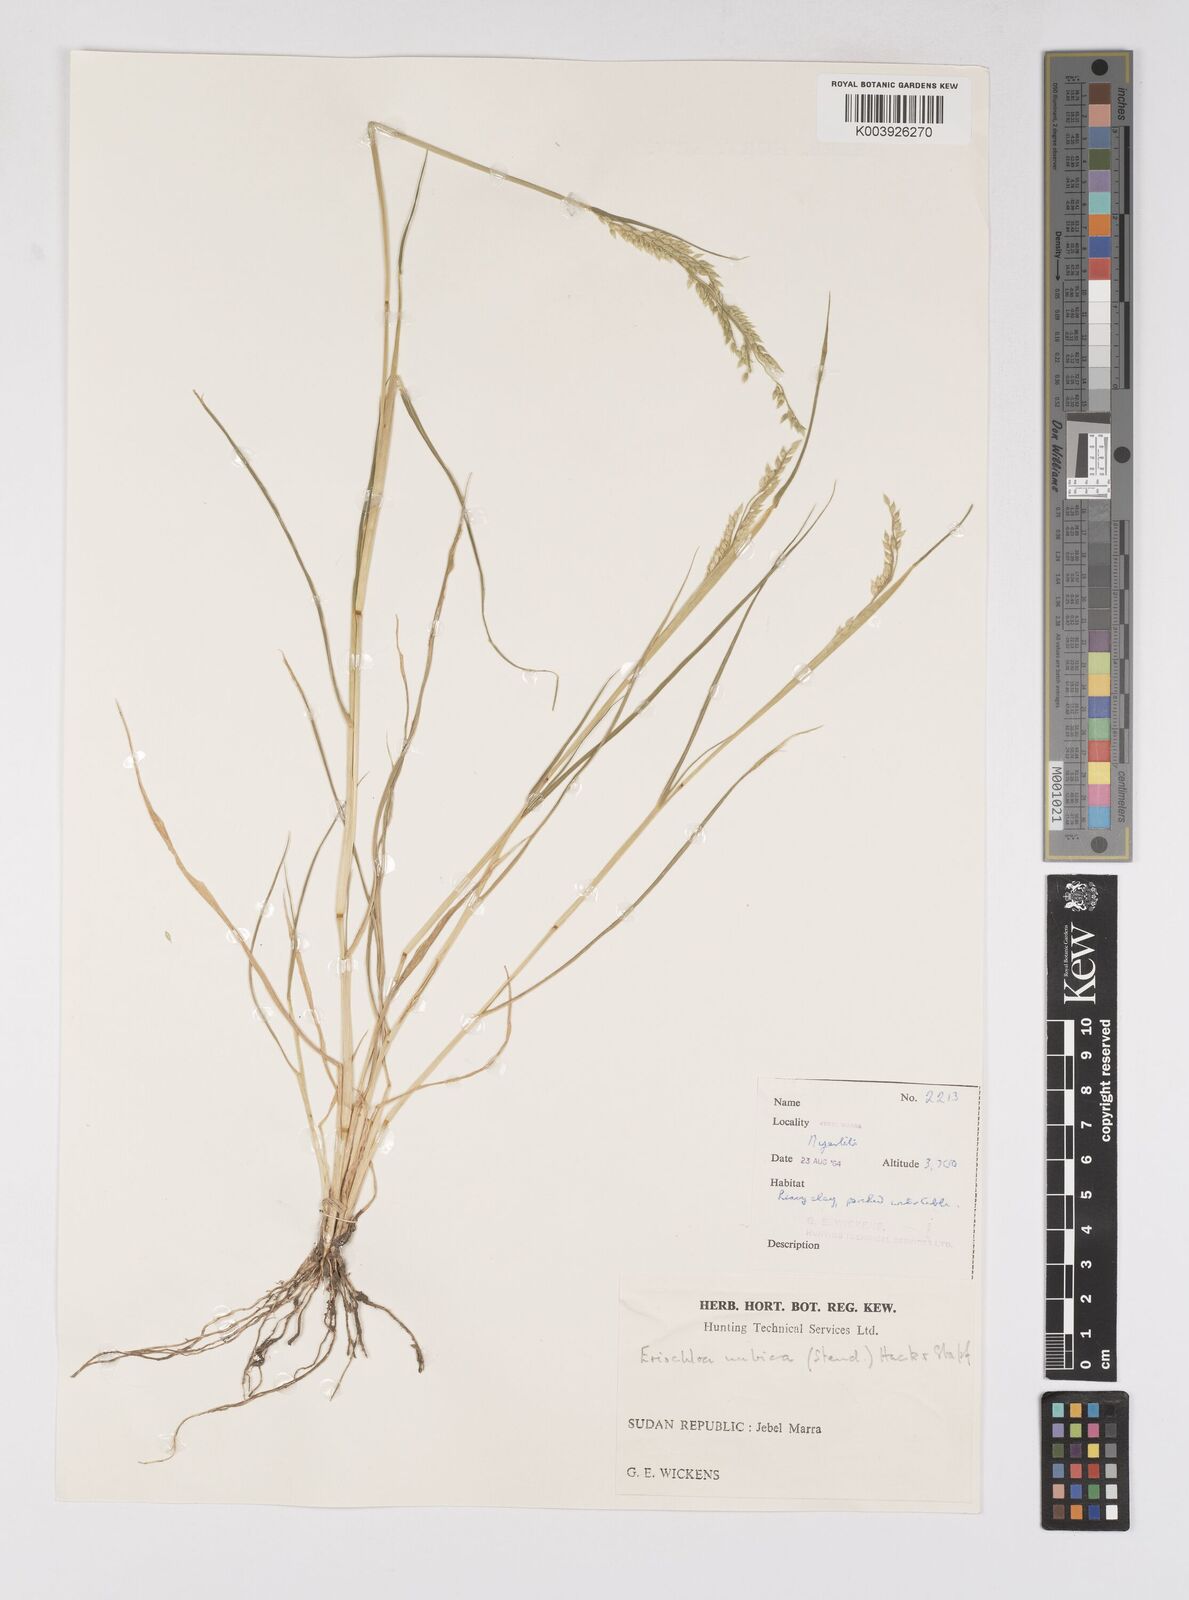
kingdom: Plantae
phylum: Tracheophyta
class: Liliopsida
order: Poales
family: Poaceae
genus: Eriochloa
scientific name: Eriochloa barbatus
